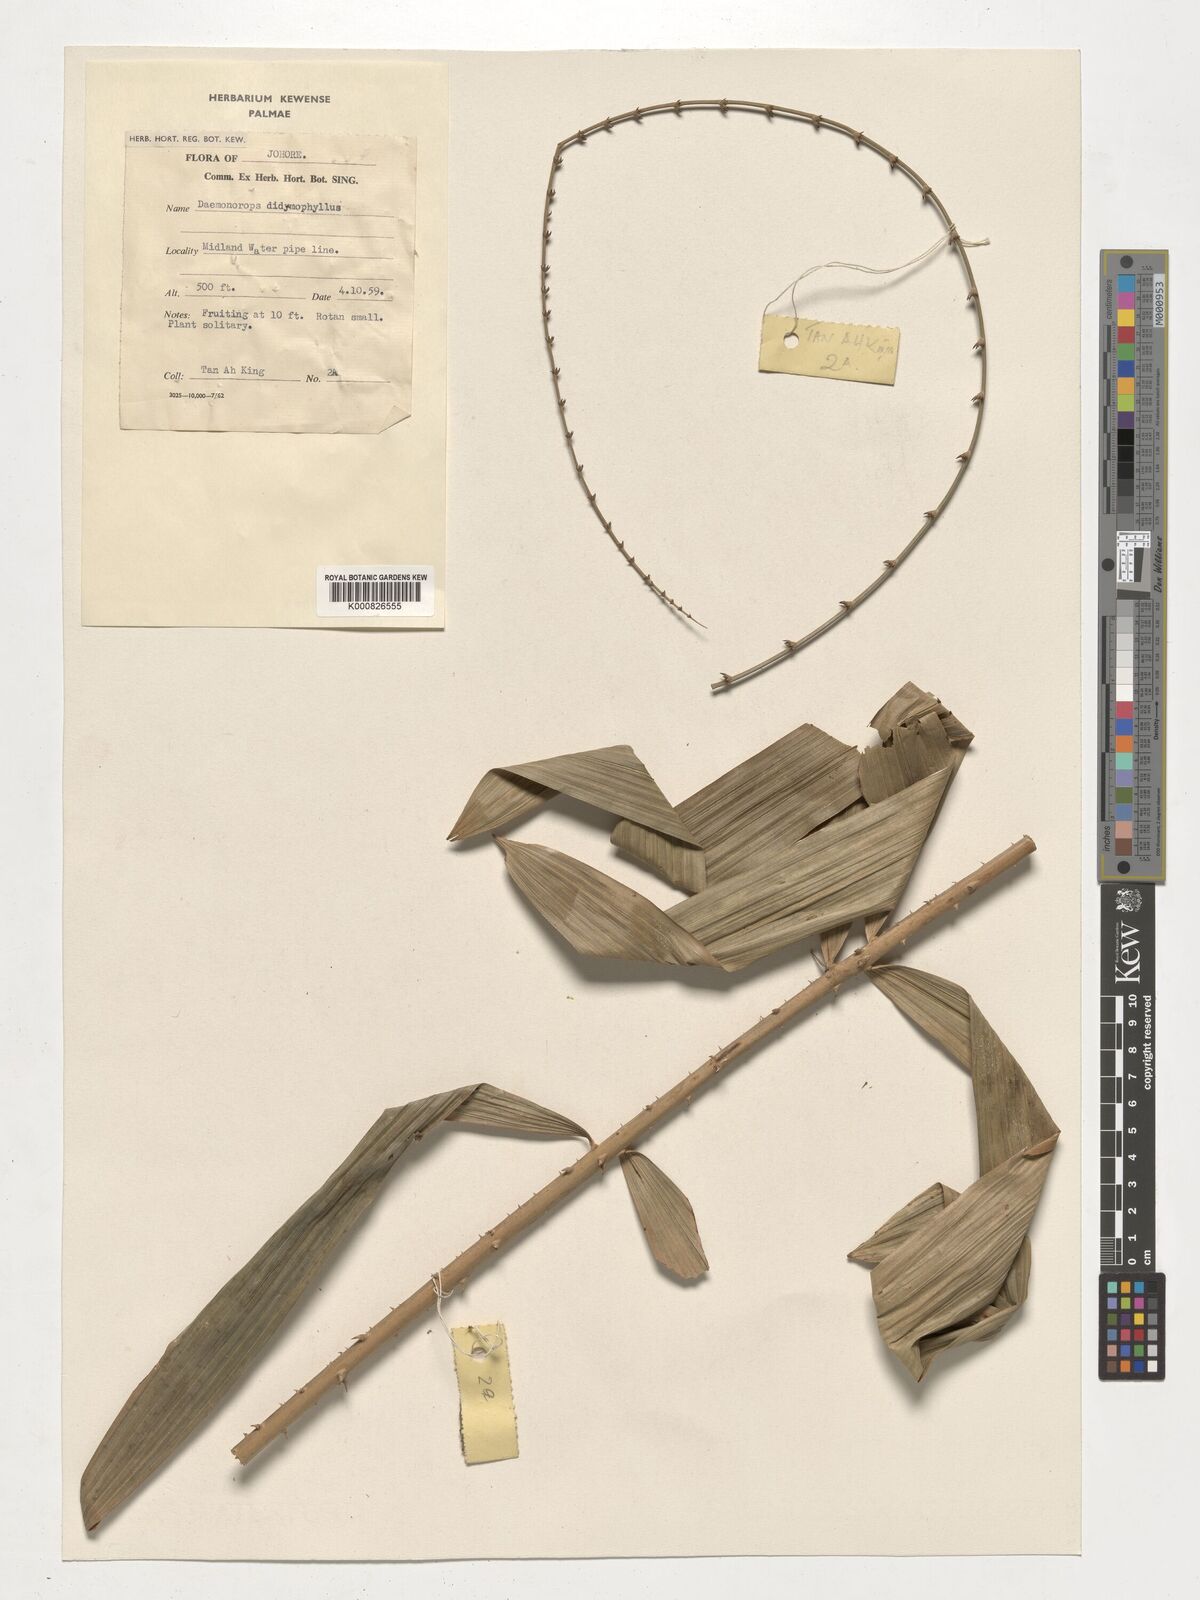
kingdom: Plantae
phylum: Tracheophyta
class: Liliopsida
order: Arecales
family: Arecaceae
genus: Calamus
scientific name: Calamus gracilipes
